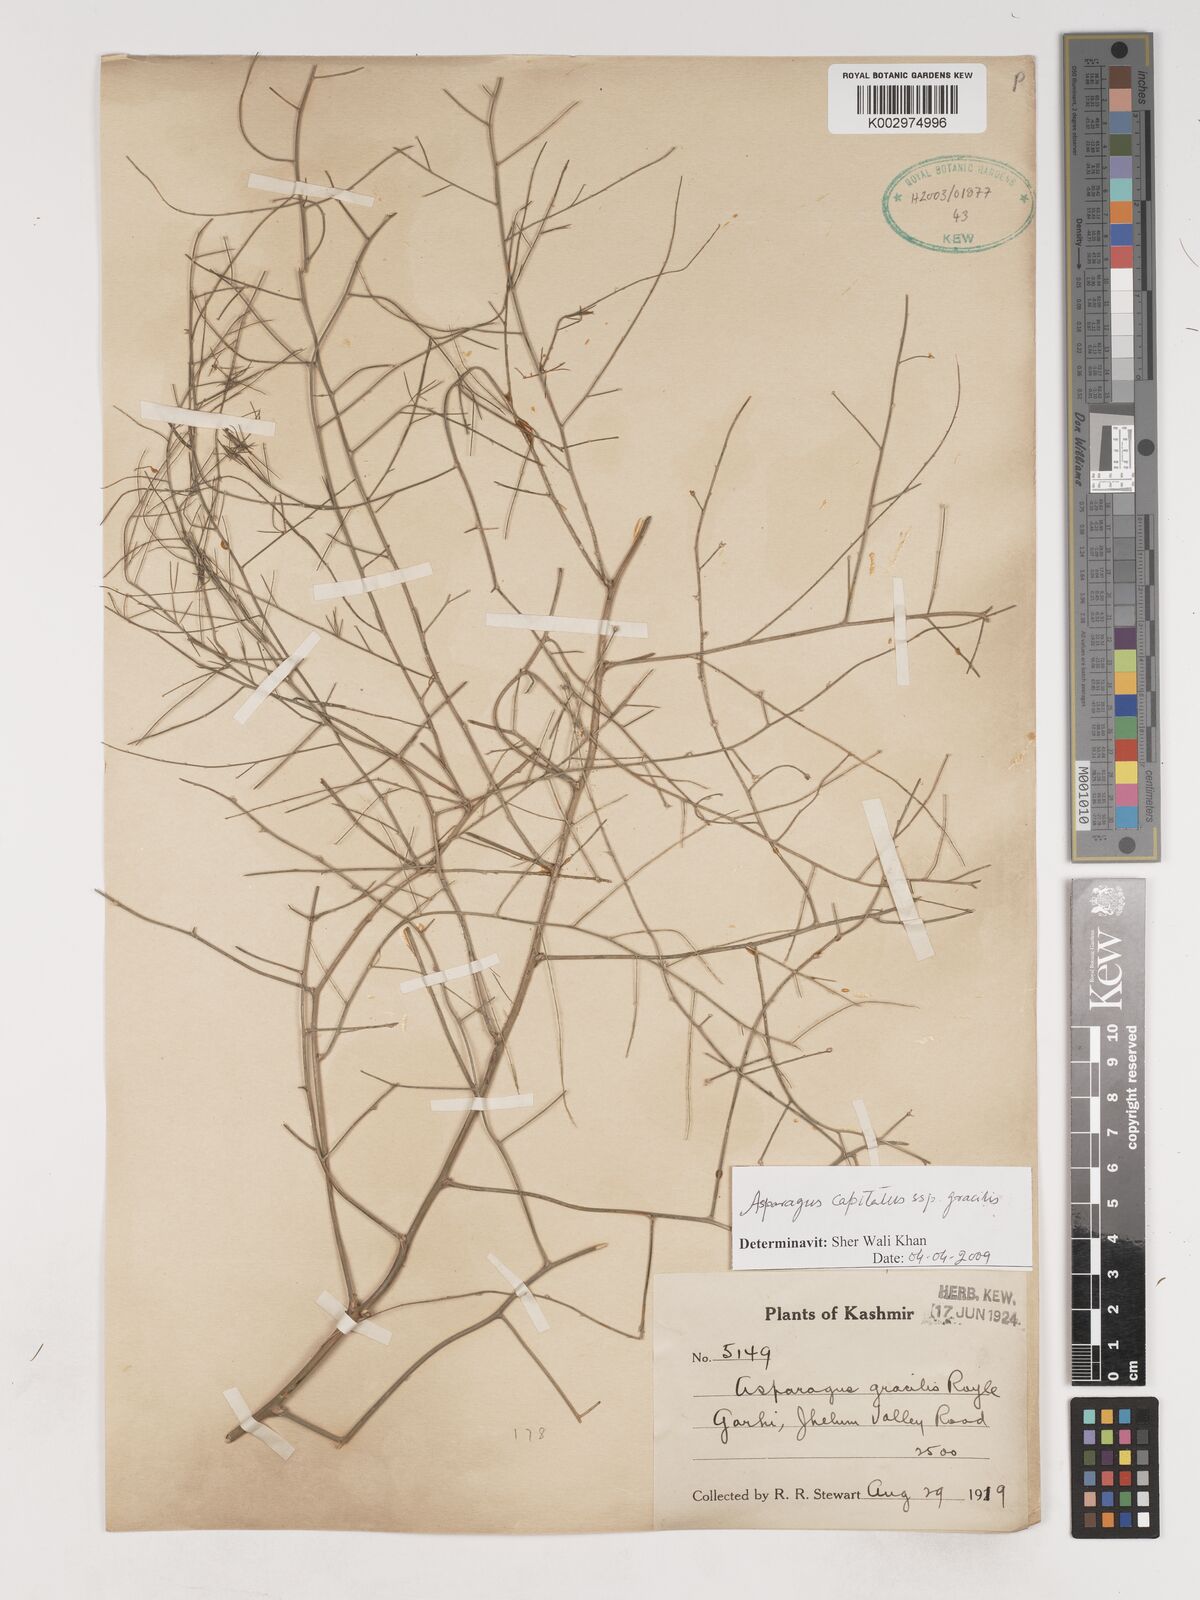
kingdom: Plantae
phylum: Tracheophyta
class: Liliopsida
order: Asparagales
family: Asparagaceae
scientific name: Asparagaceae
